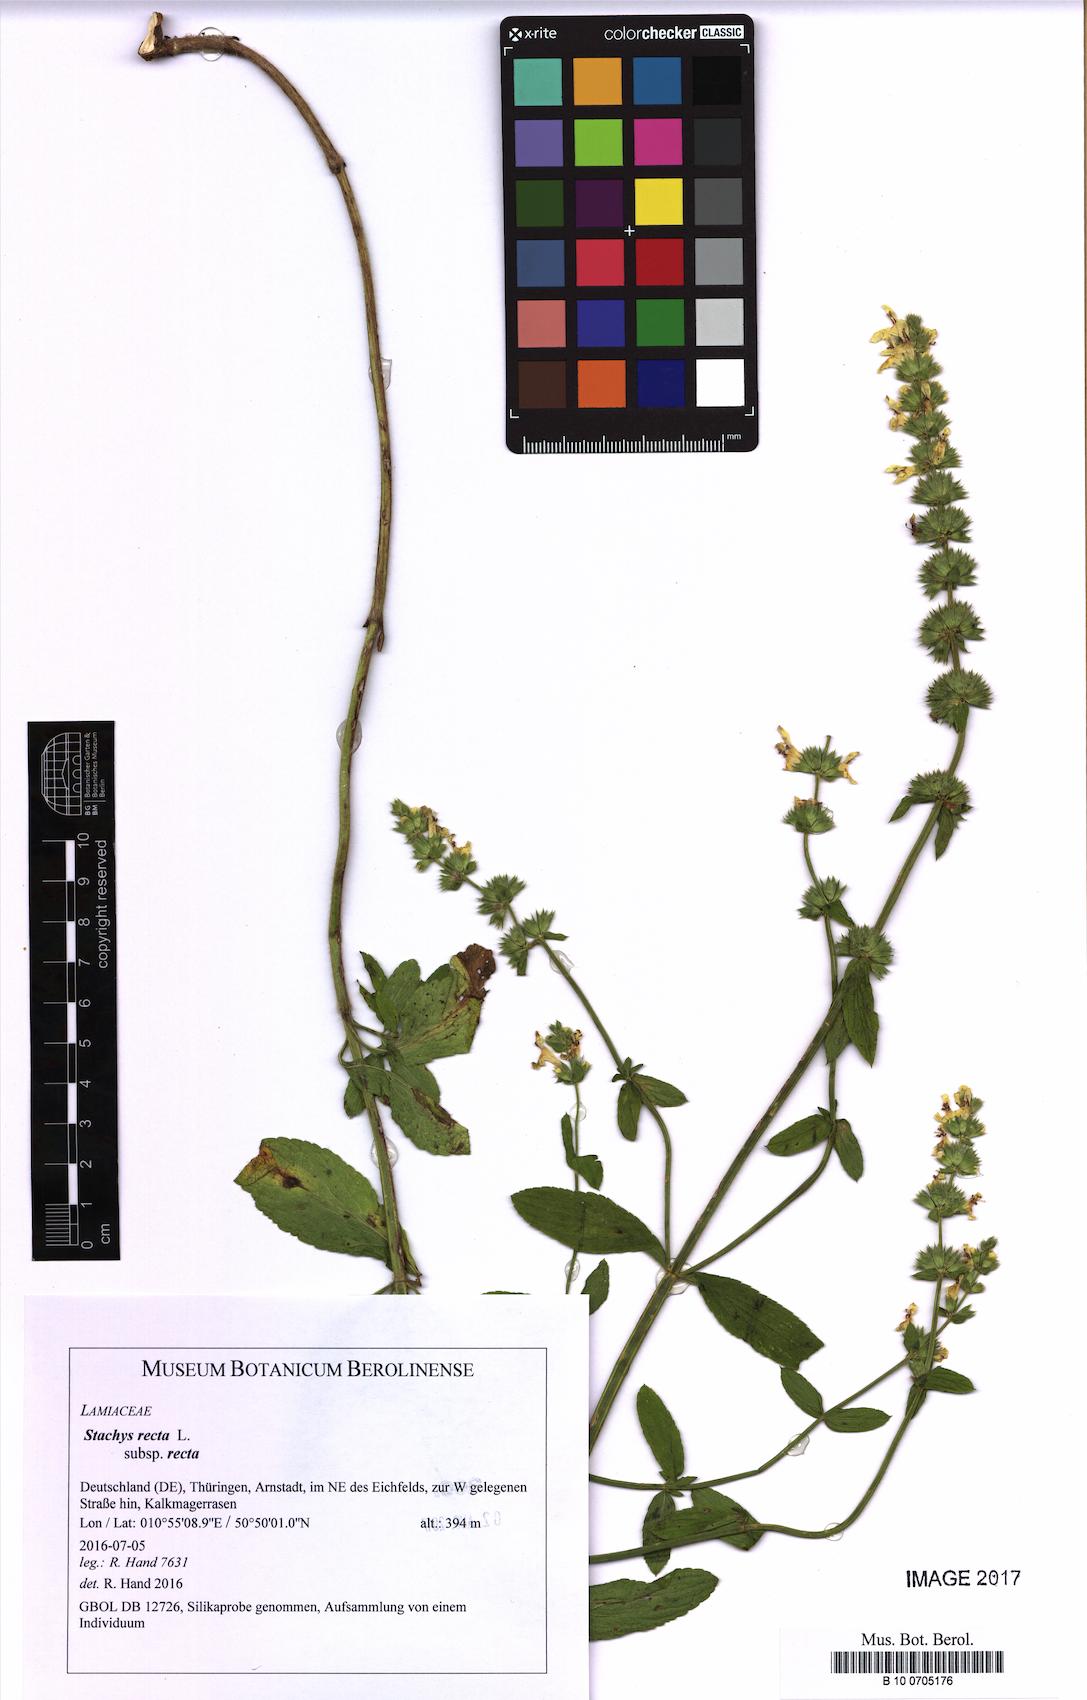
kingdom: Plantae
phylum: Tracheophyta
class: Magnoliopsida
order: Lamiales
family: Lamiaceae
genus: Stachys
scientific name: Stachys recta
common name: Perennial yellow-woundwort
